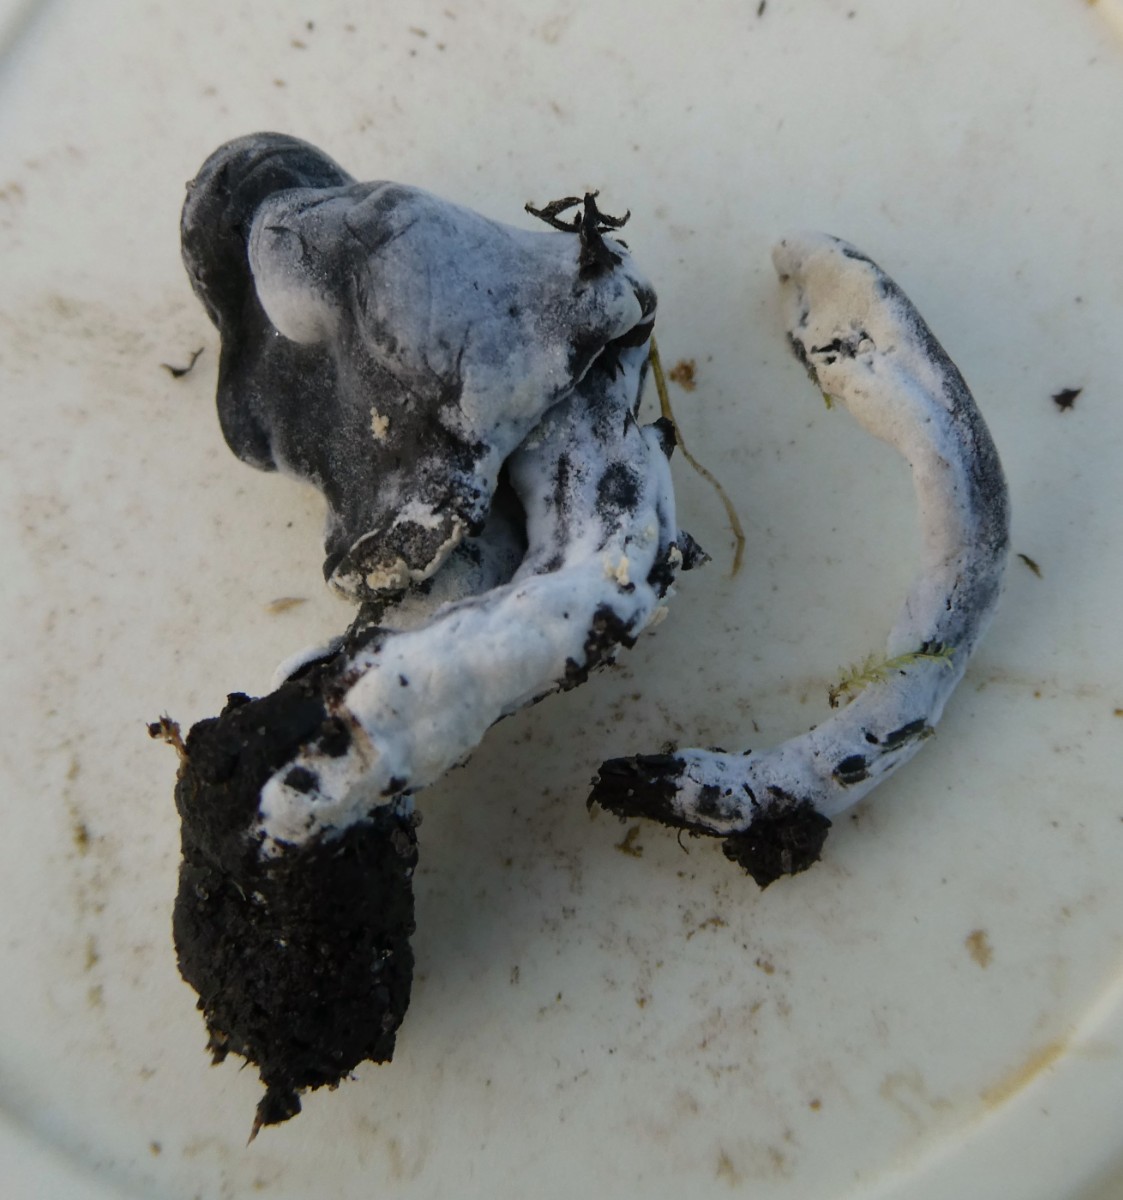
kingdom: Fungi
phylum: Ascomycota
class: Sordariomycetes
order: Hypocreales
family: Hypocreaceae
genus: Hypomyces
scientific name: Hypomyces papulasporae
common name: jordtunge-snylteskorpe
